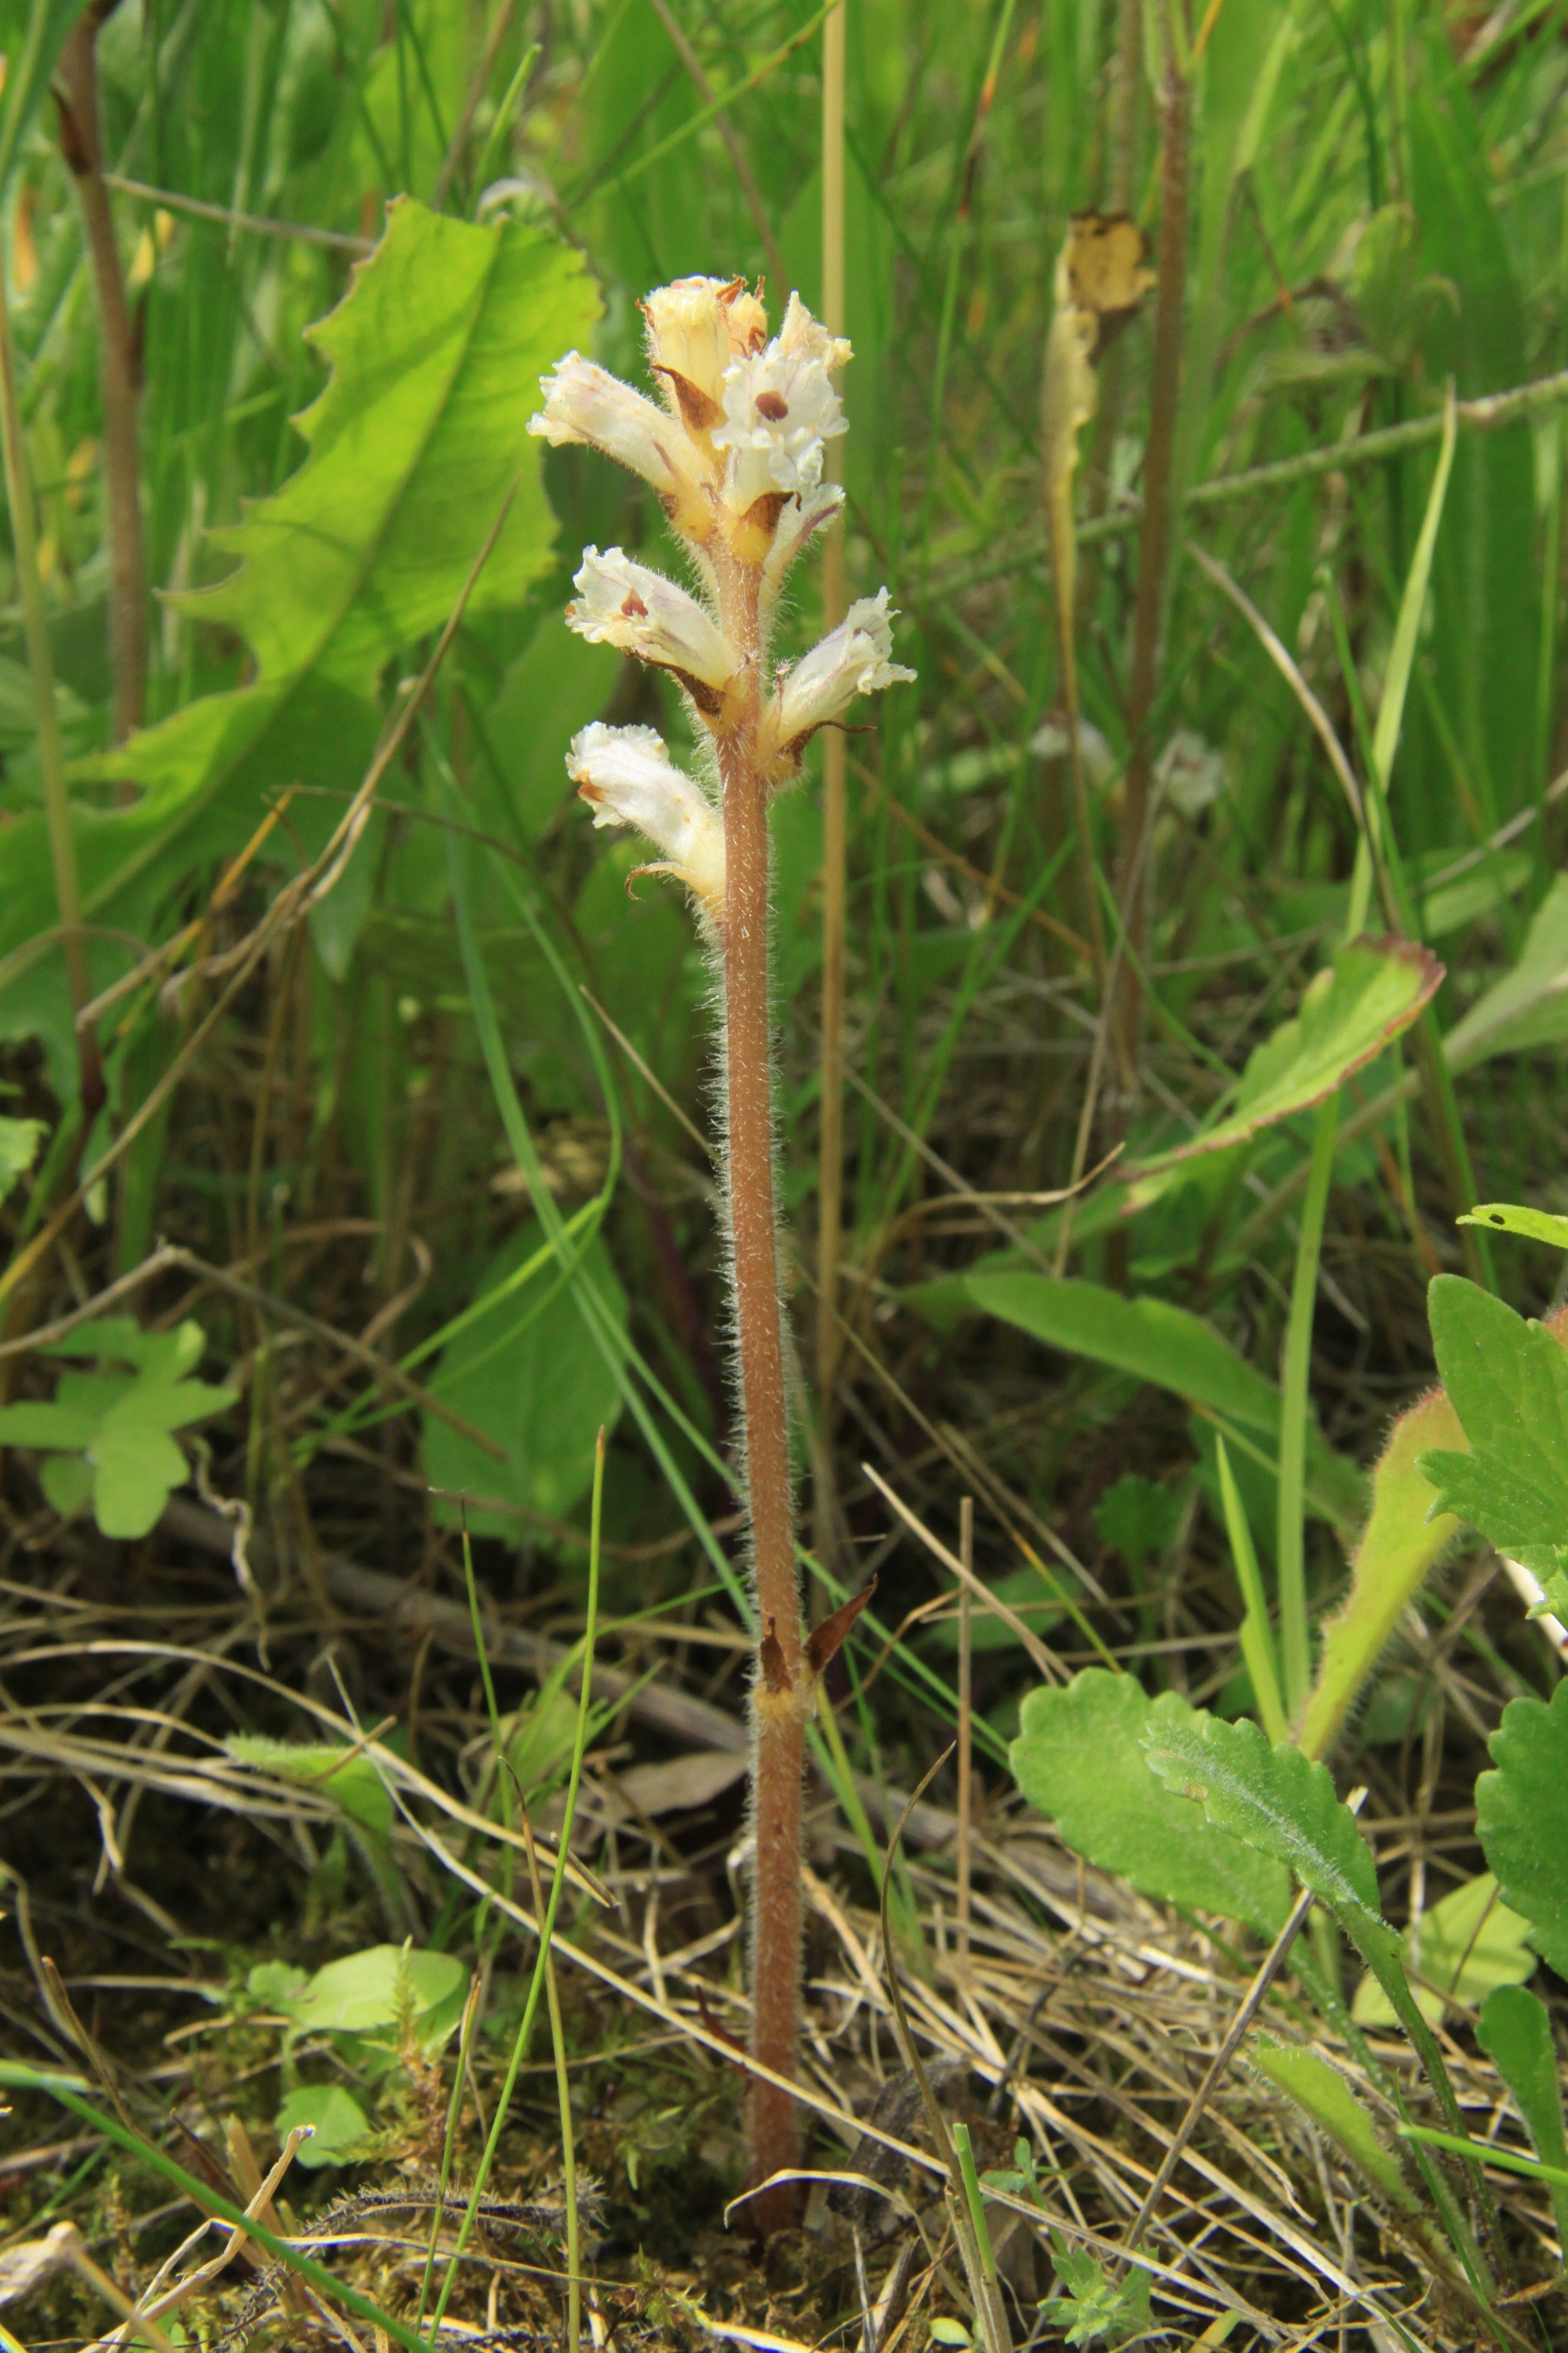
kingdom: Plantae
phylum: Tracheophyta
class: Magnoliopsida
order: Lamiales
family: Orobanchaceae
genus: Orobanche
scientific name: Orobanche picridis
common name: Bittermælk-gyvelkvæler
